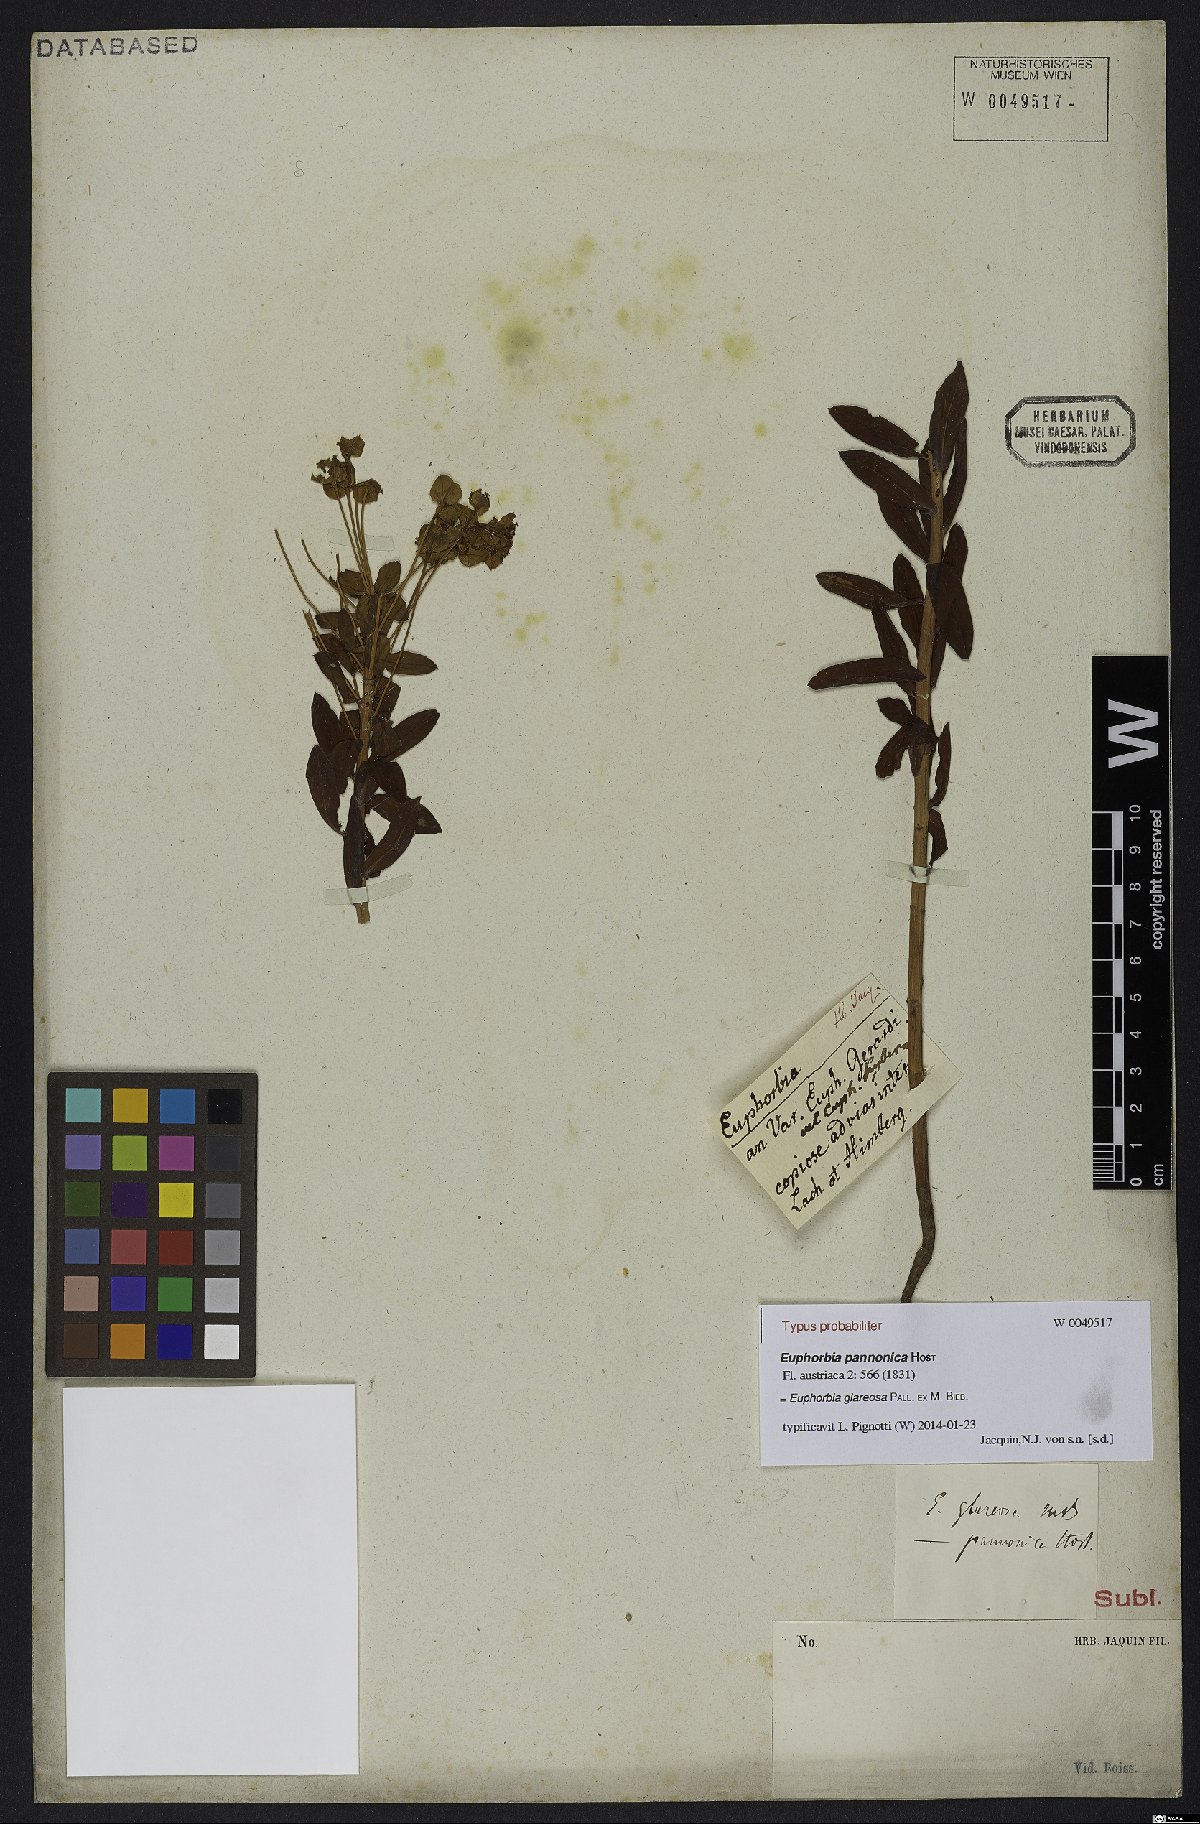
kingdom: Plantae
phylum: Tracheophyta
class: Magnoliopsida
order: Malpighiales
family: Euphorbiaceae
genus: Euphorbia
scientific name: Euphorbia glareosa
